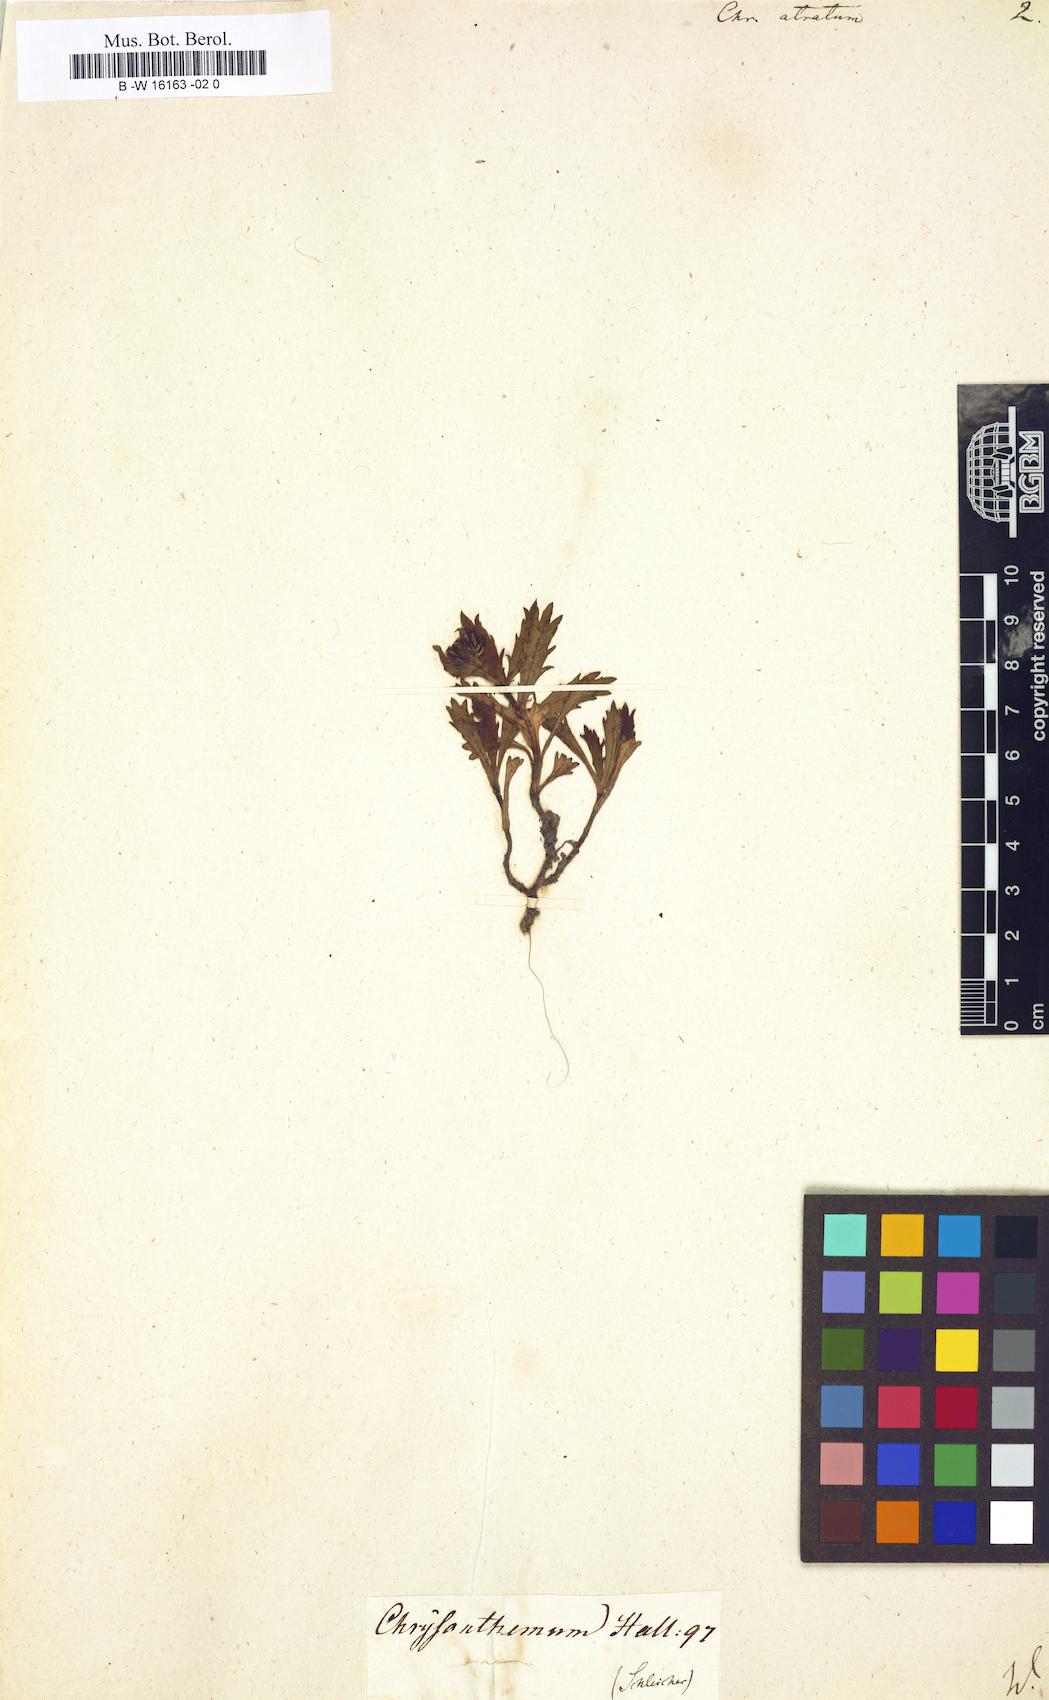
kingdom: Plantae
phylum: Tracheophyta
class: Magnoliopsida
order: Asterales
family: Asteraceae
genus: Chrysanthemum
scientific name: Chrysanthemum atratum
